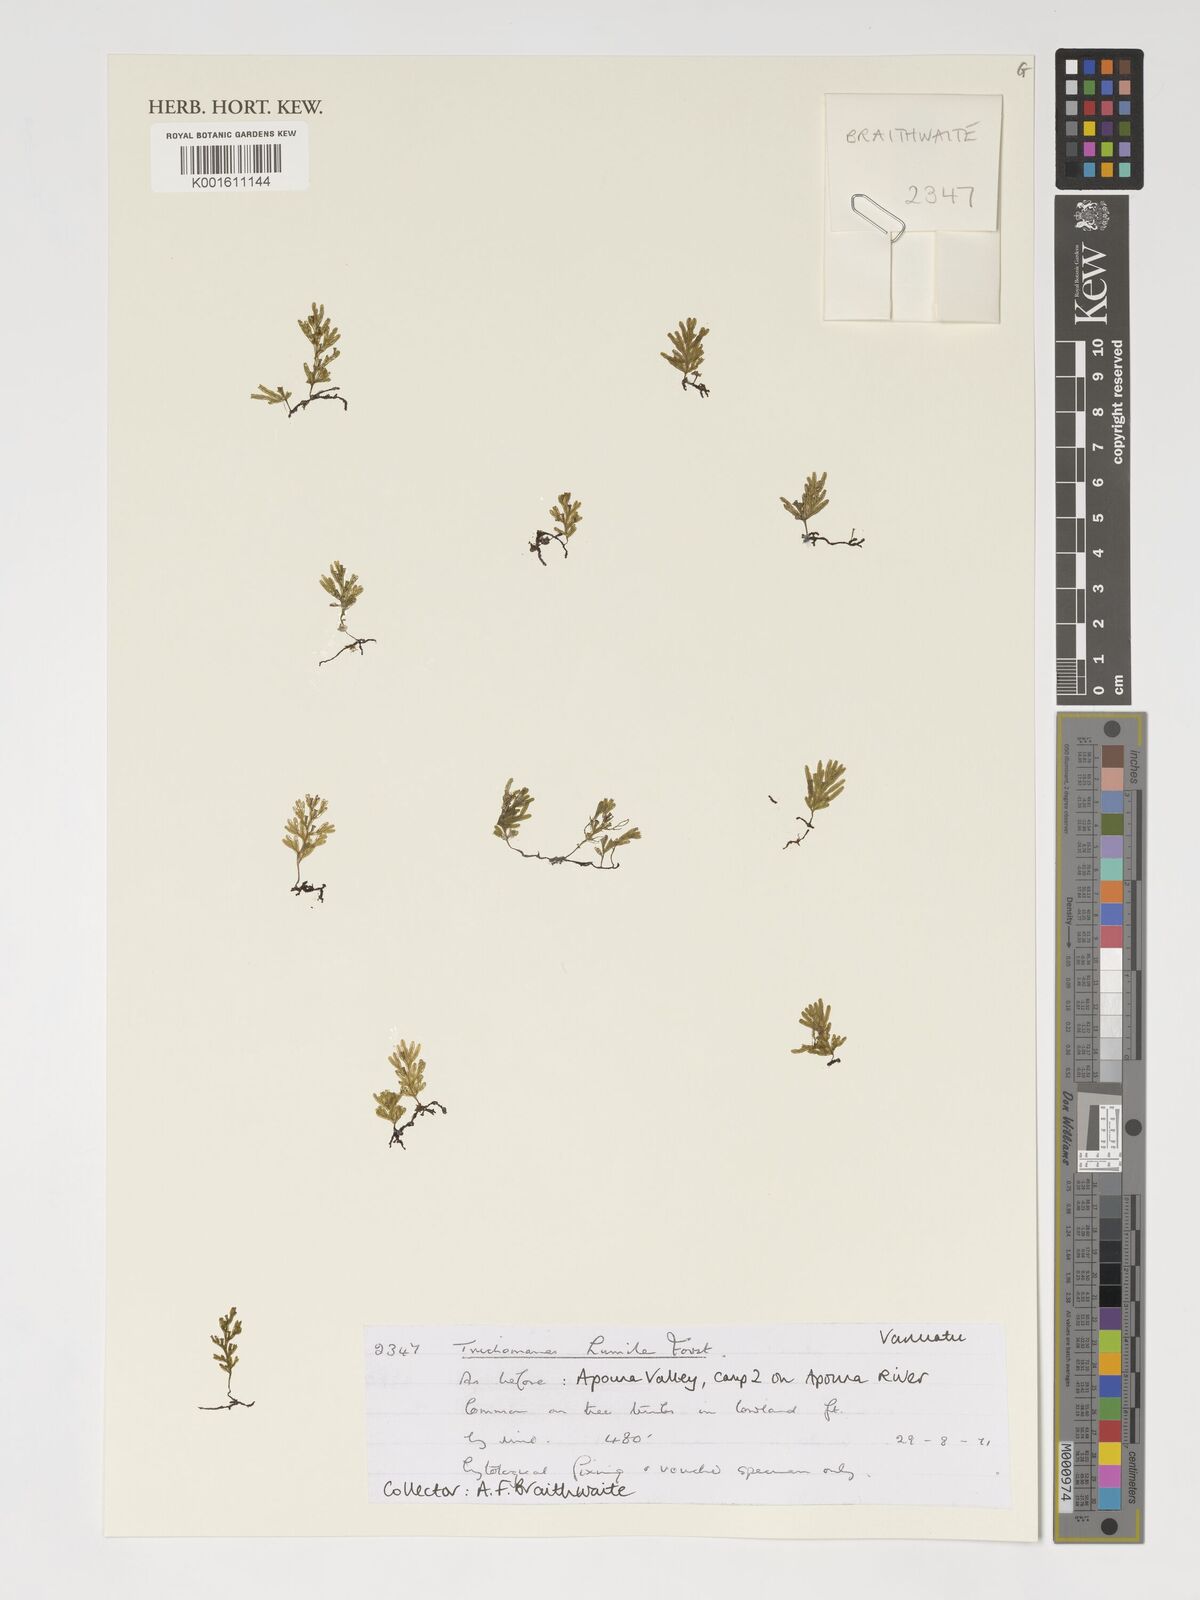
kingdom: Plantae
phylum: Tracheophyta
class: Polypodiopsida
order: Hymenophyllales
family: Hymenophyllaceae
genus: Crepidomanes
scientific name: Crepidomanes humile
